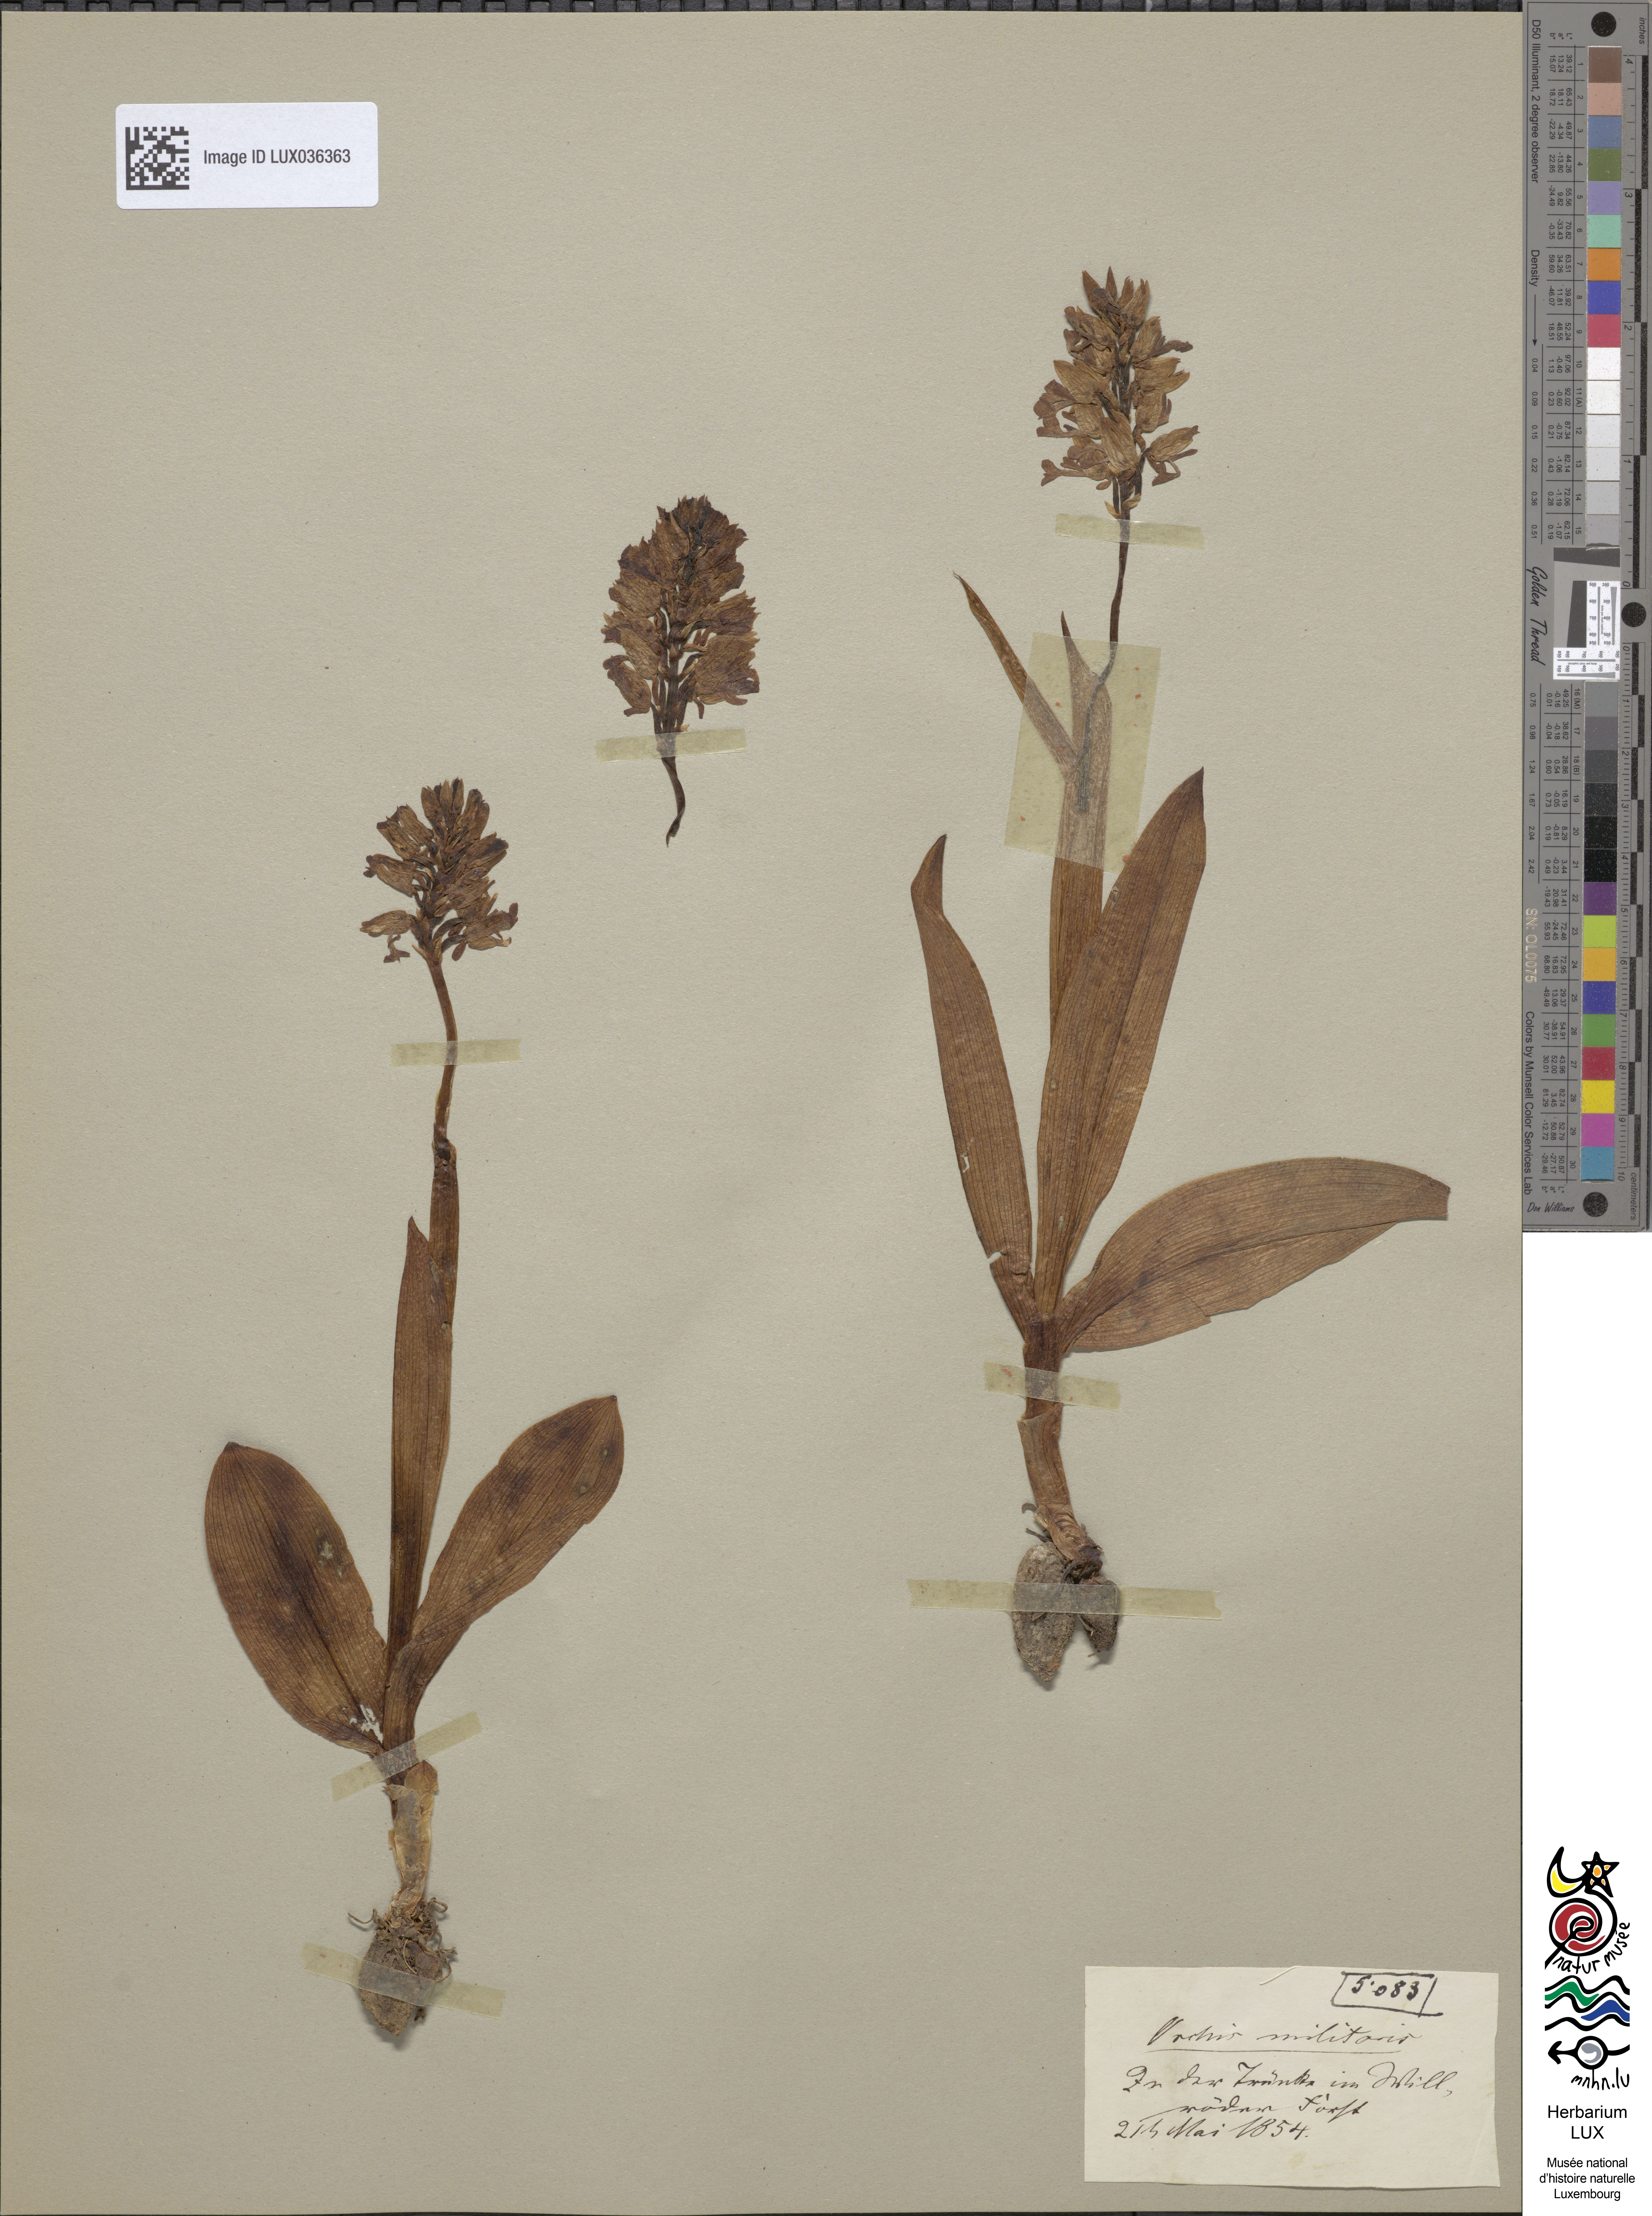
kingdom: Plantae
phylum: Tracheophyta
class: Liliopsida
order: Asparagales
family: Orchidaceae
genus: Orchis
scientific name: Orchis militaris
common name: Military orchid
